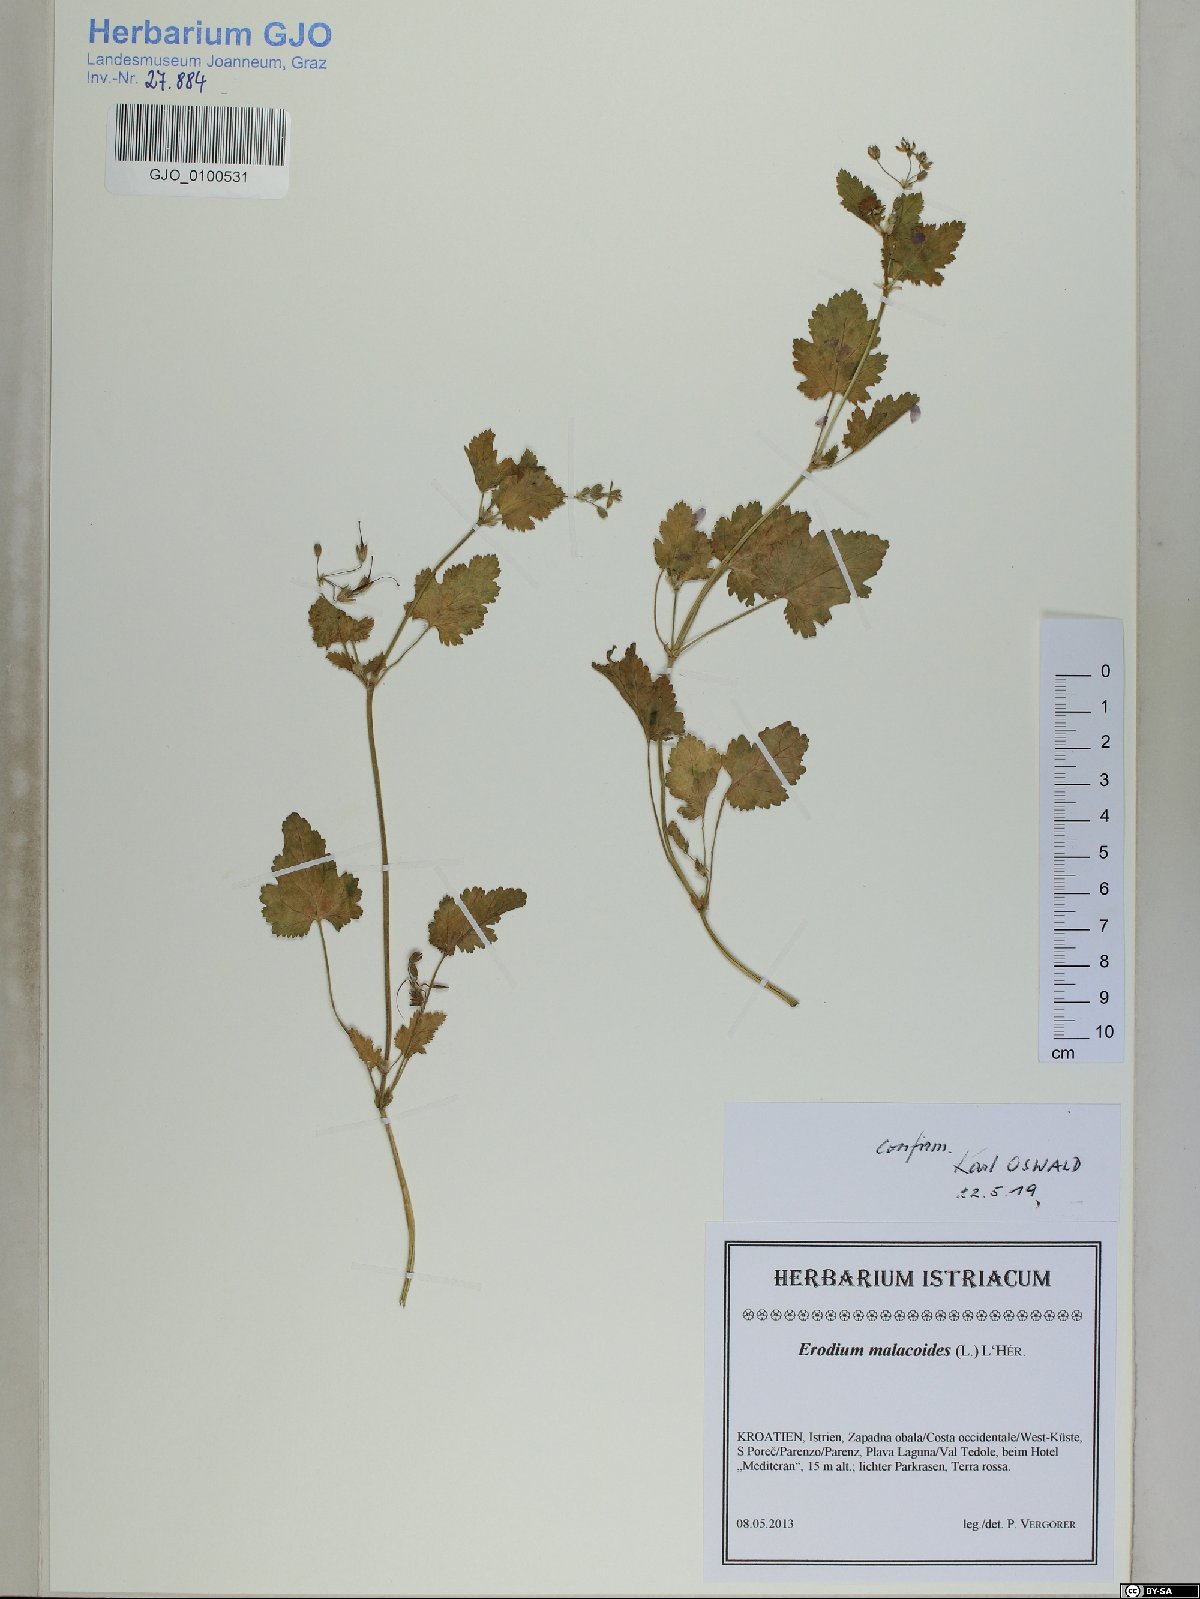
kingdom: Plantae
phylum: Tracheophyta
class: Magnoliopsida
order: Geraniales
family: Geraniaceae
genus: Erodium
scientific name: Erodium malacoides
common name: Soft stork's-bill
